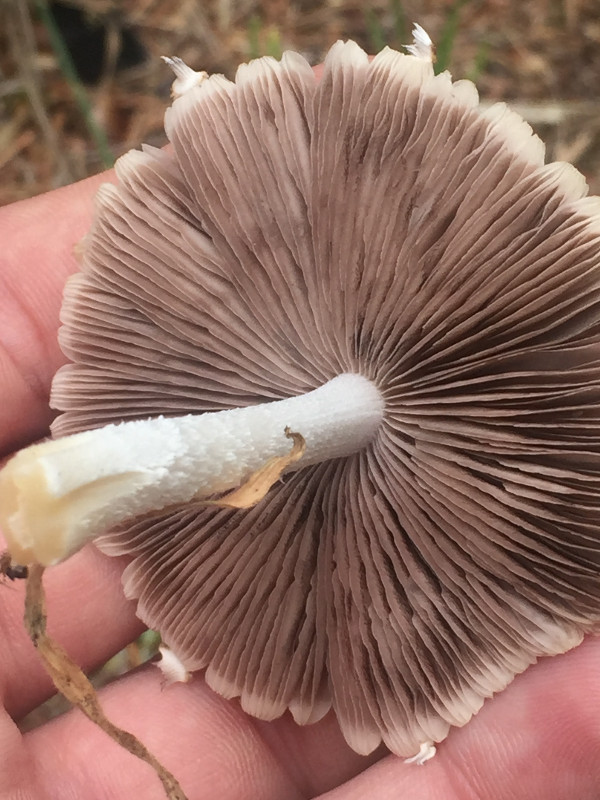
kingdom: Fungi
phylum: Basidiomycota
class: Agaricomycetes
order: Agaricales
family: Psathyrellaceae
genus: Candolleomyces
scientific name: Candolleomyces candolleanus
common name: Candolles mørkhat
